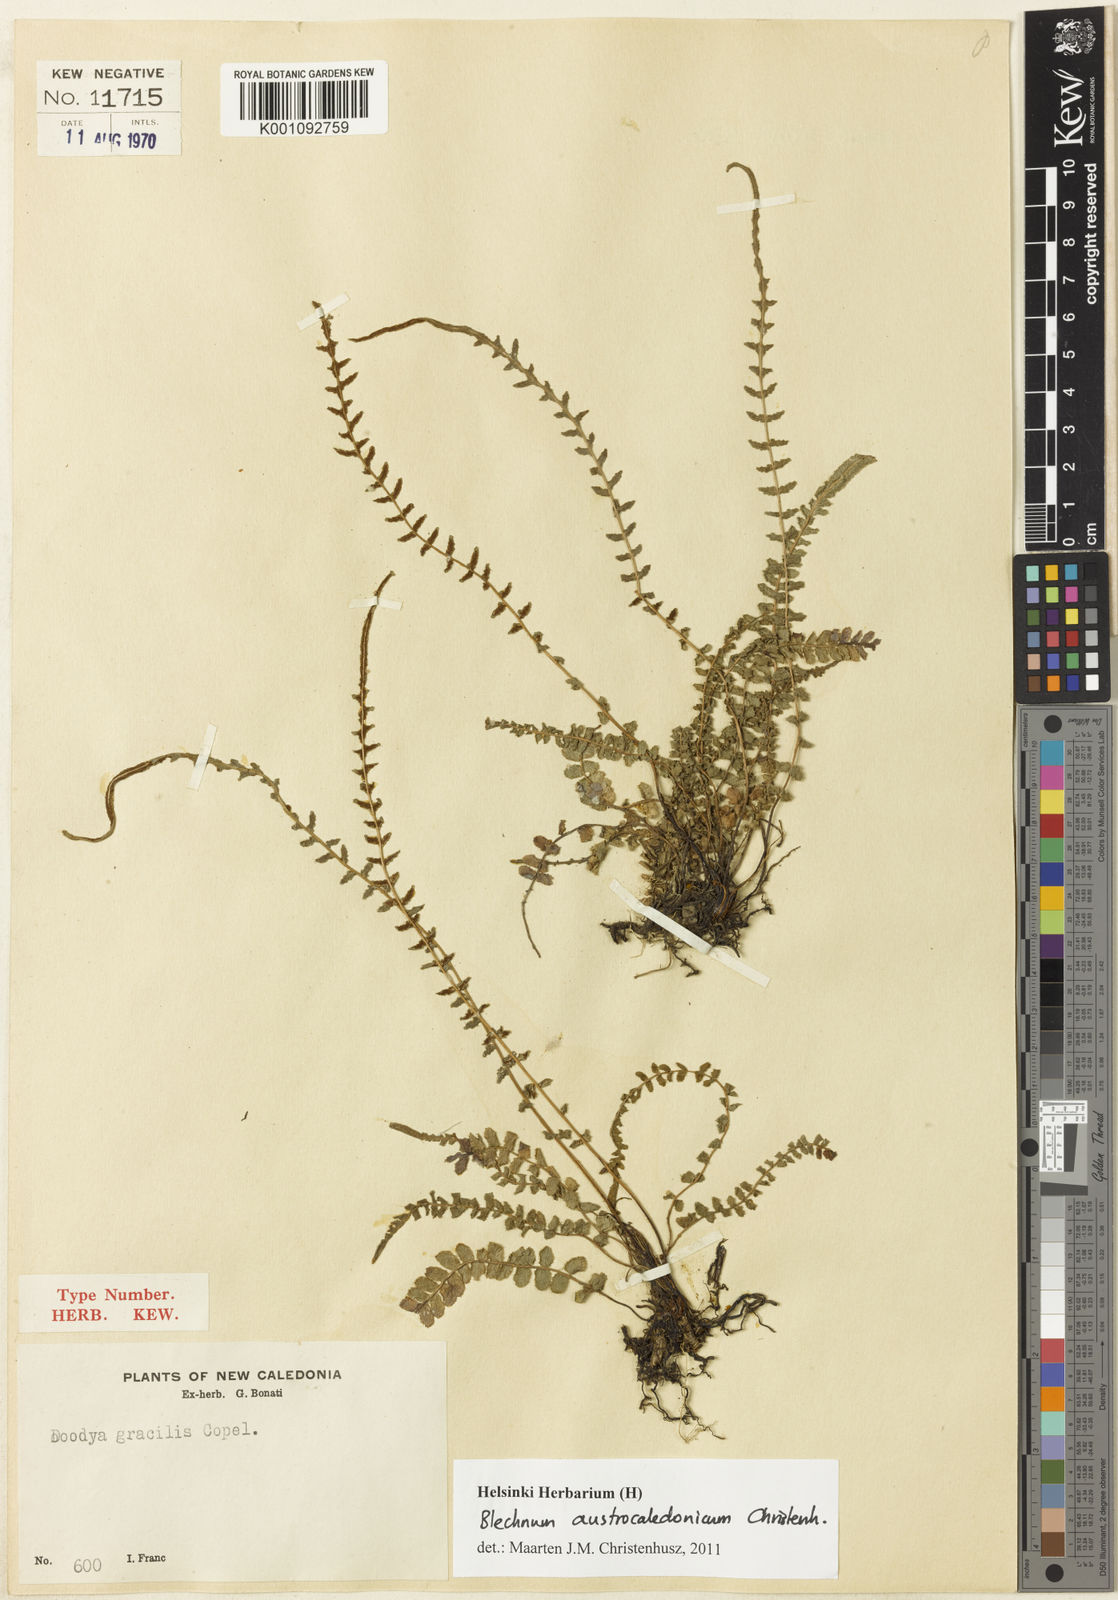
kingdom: Plantae
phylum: Tracheophyta
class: Polypodiopsida
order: Polypodiales
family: Blechnaceae
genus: Doodia
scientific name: Doodia gracilis
